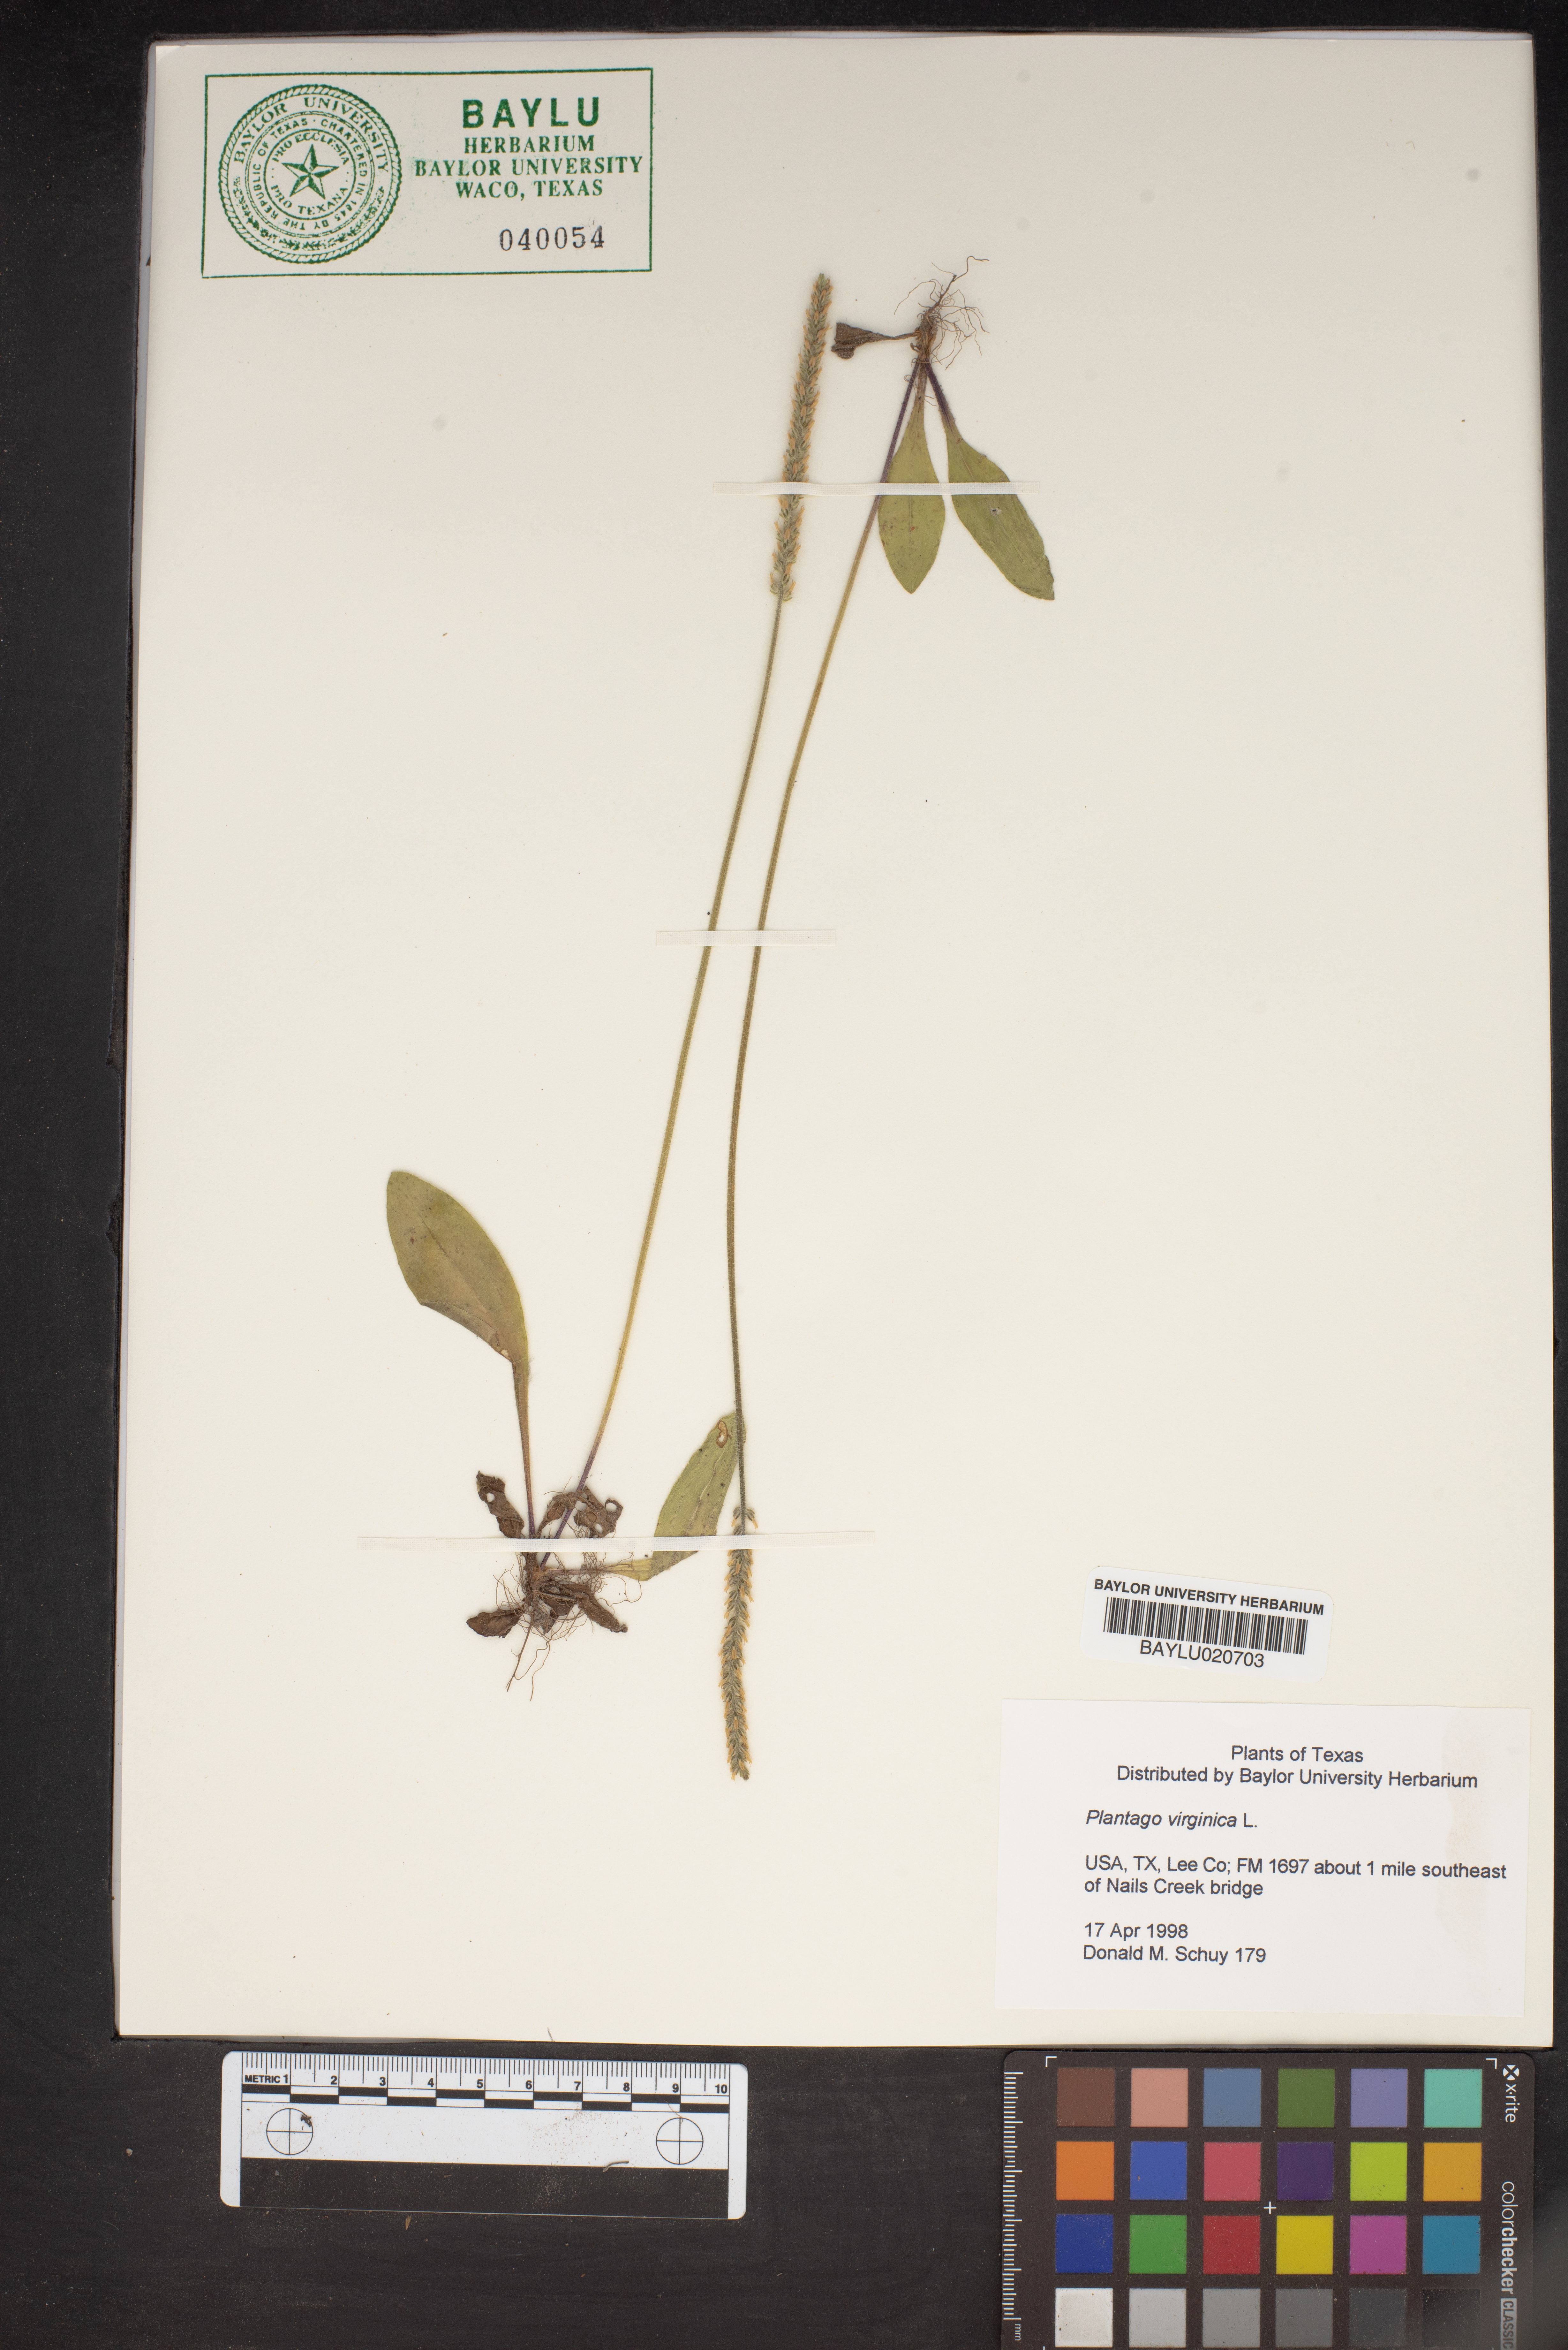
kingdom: Plantae
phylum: Tracheophyta
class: Magnoliopsida
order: Lamiales
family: Plantaginaceae
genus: Plantago
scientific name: Plantago virginica
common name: Hoary plantain
